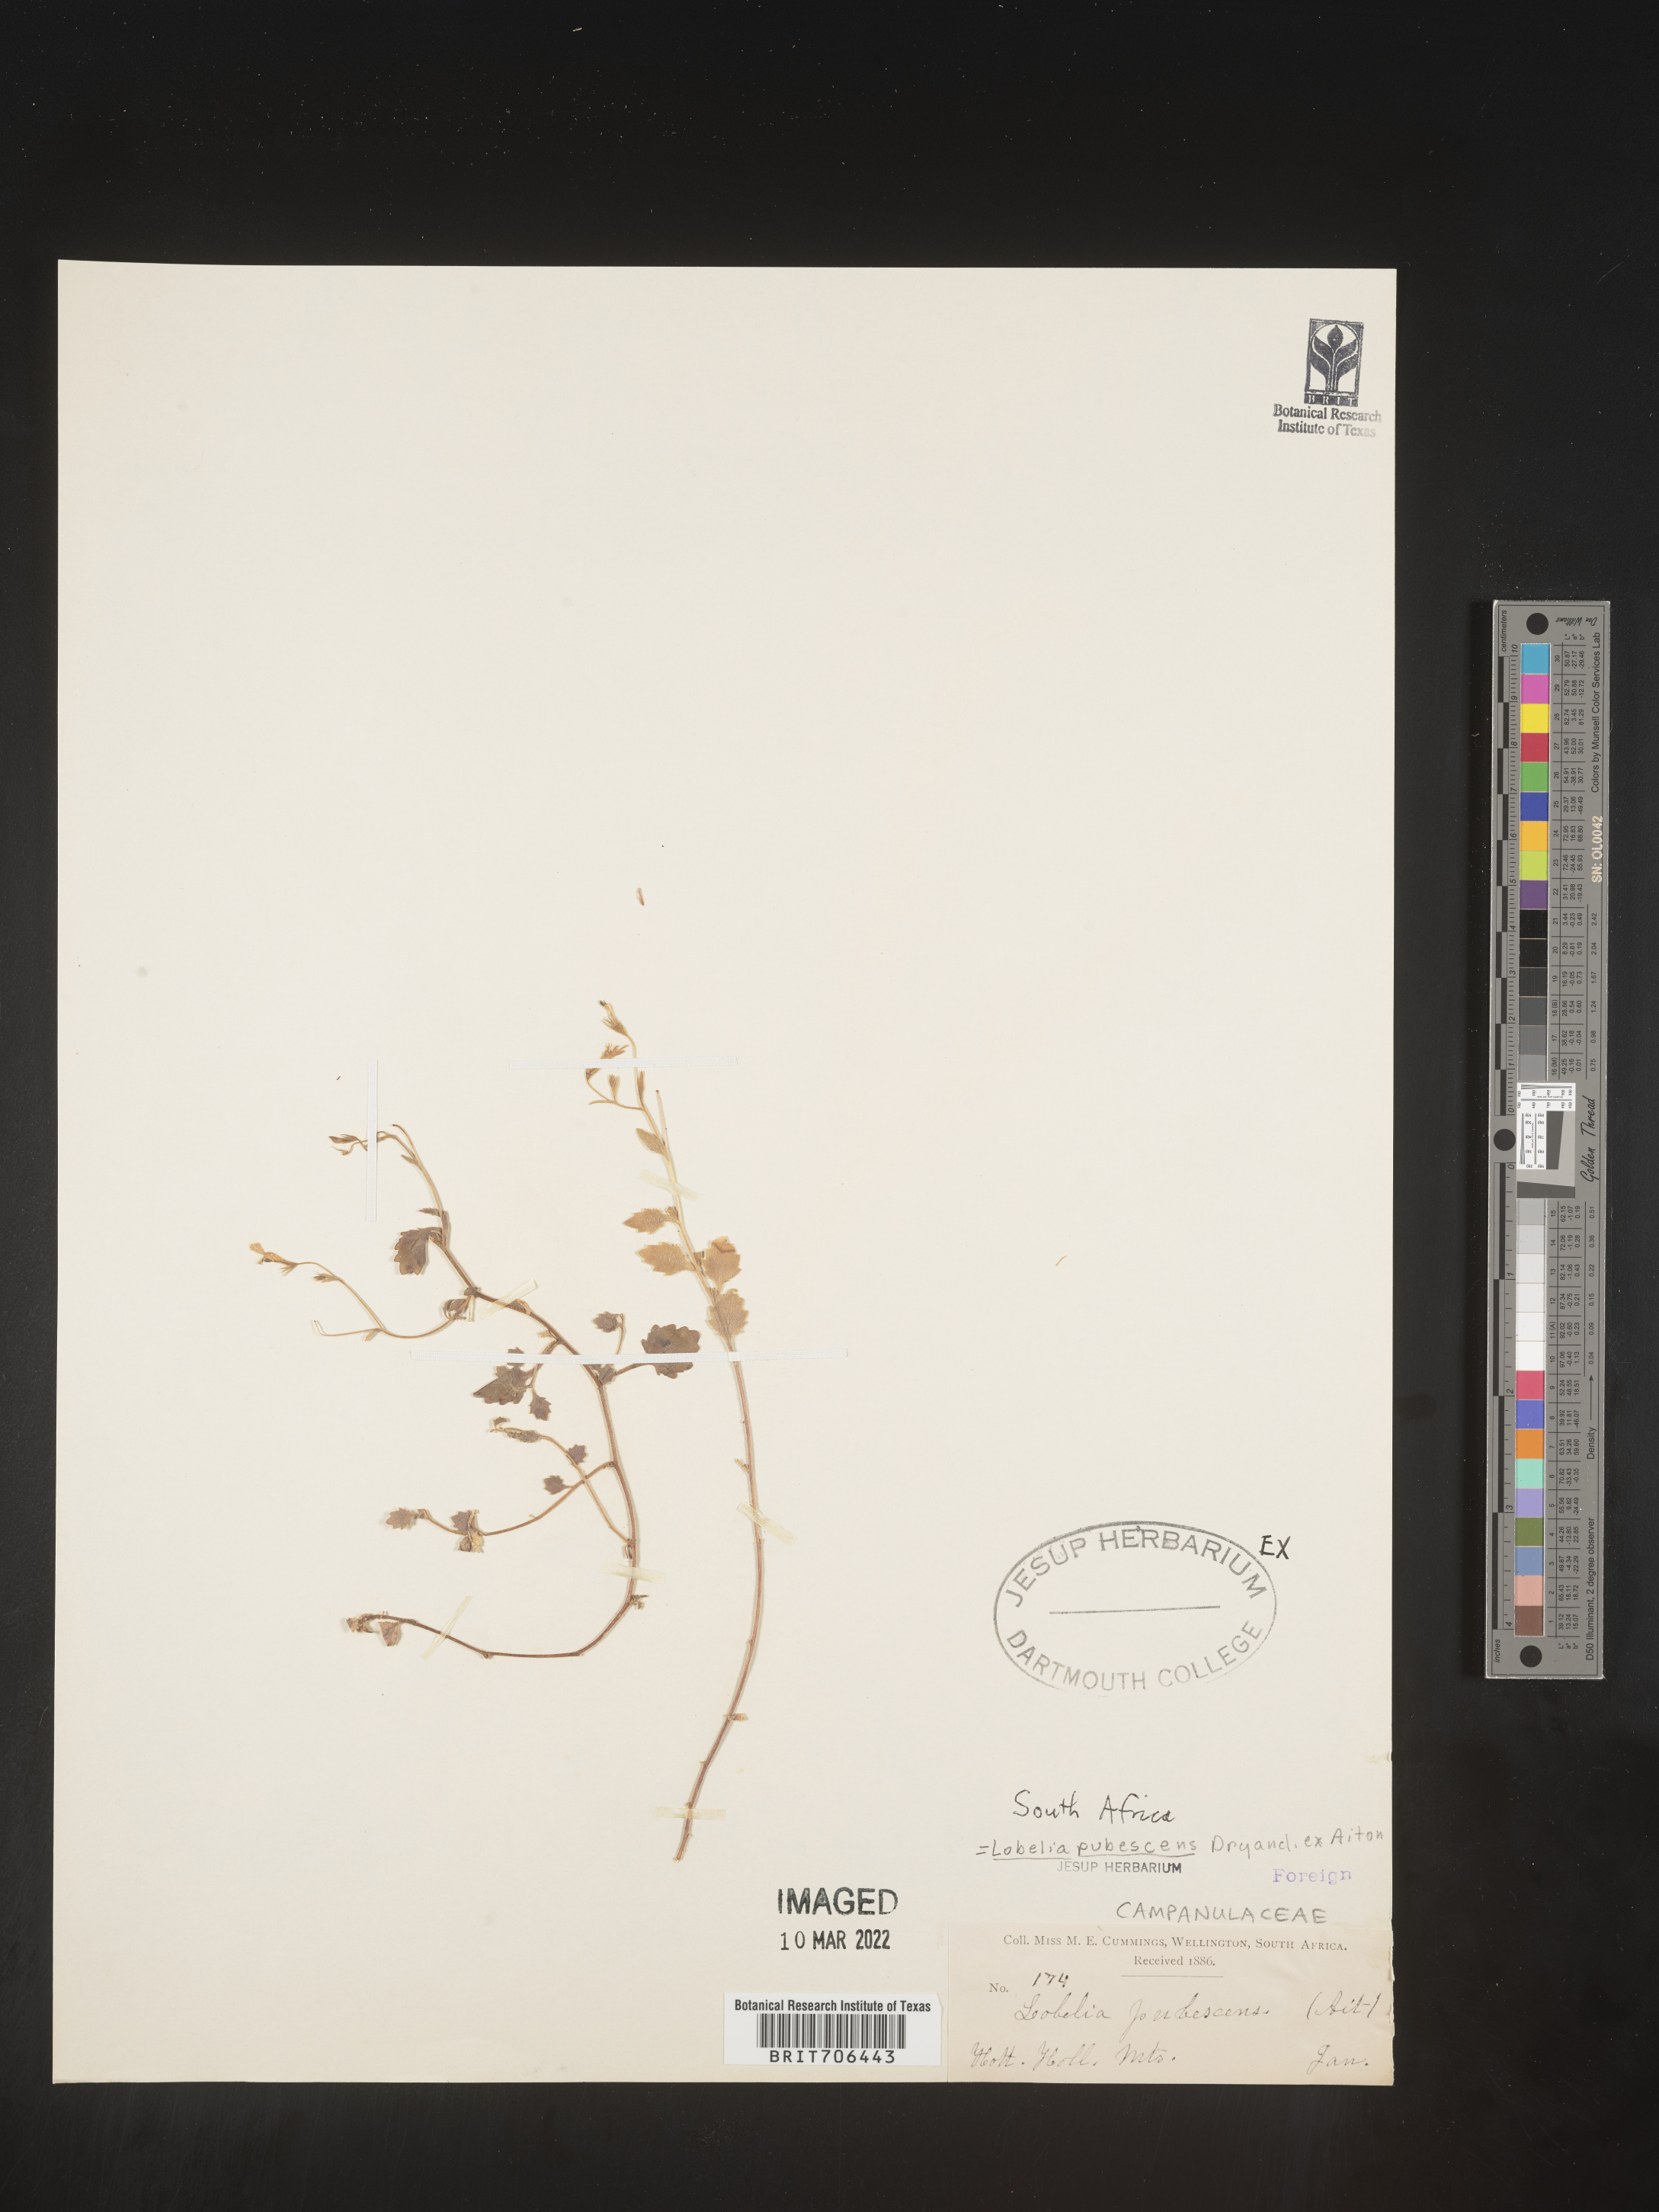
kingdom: Plantae
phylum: Tracheophyta
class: Magnoliopsida
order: Asterales
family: Campanulaceae
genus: Lobelia
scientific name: Lobelia
